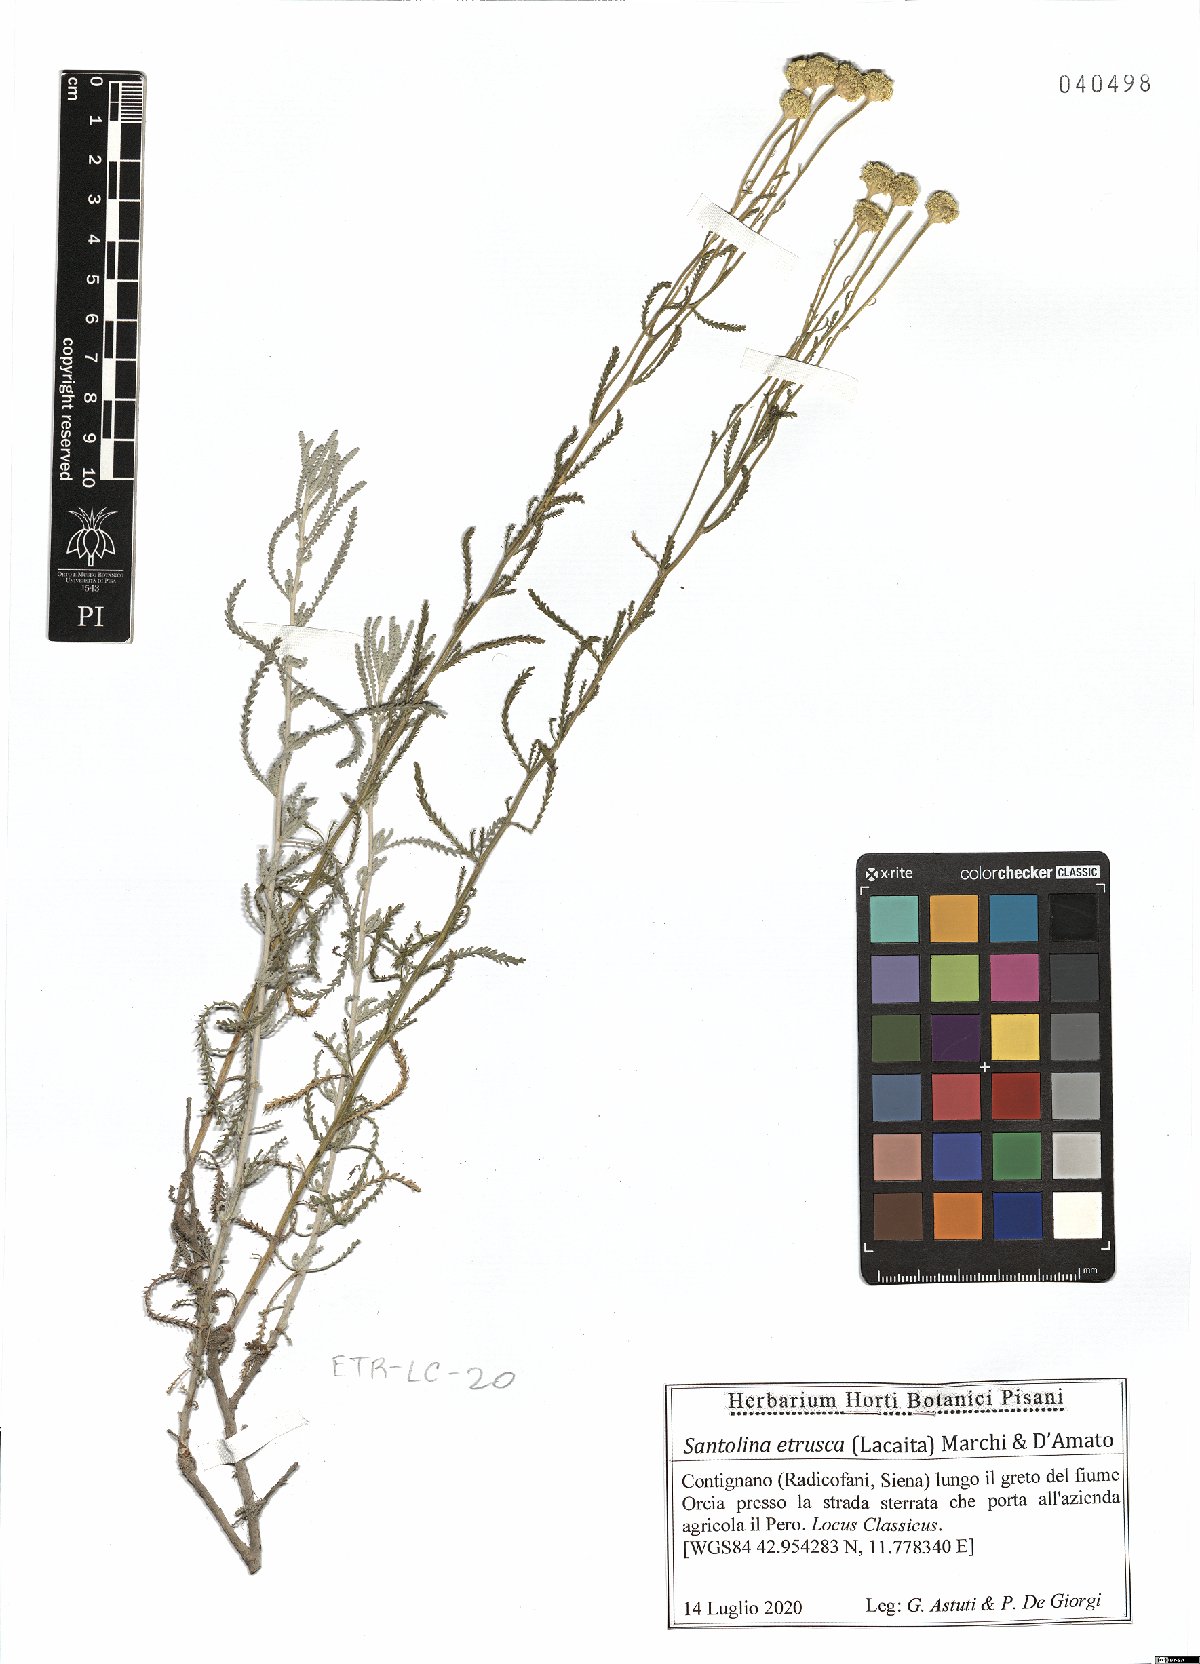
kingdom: Plantae
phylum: Tracheophyta
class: Magnoliopsida
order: Asterales
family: Asteraceae
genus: Santolina
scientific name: Santolina etrusca
